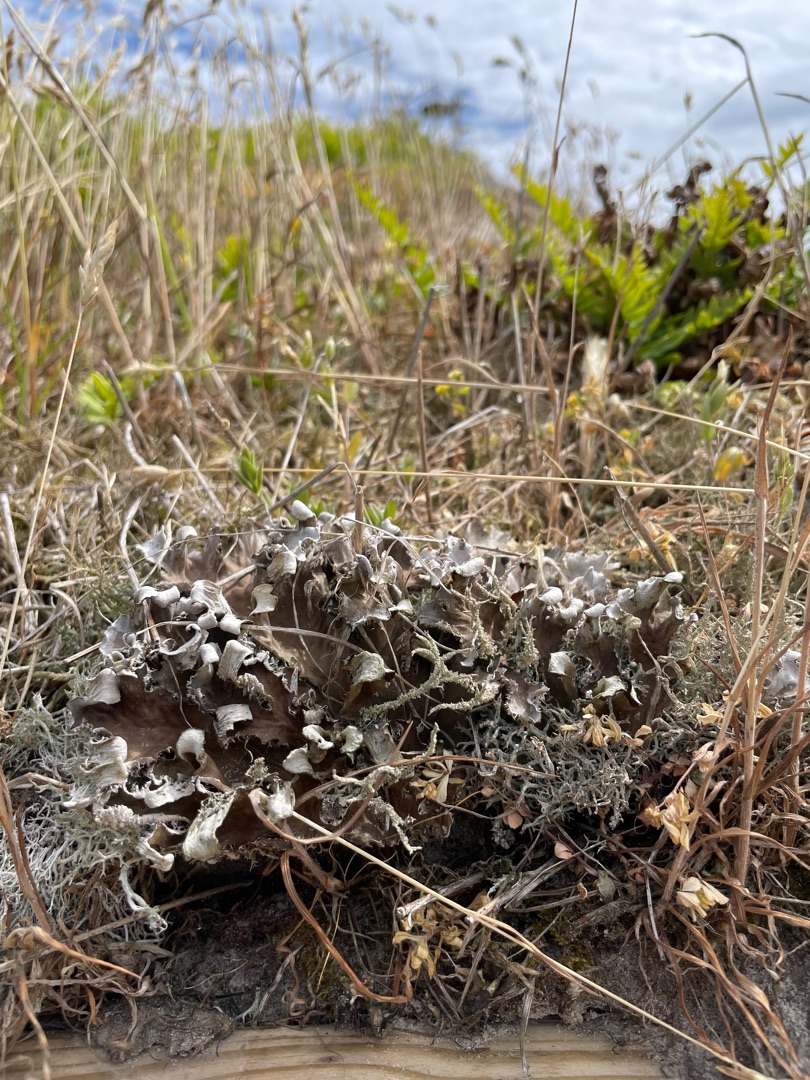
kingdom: Fungi
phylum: Ascomycota
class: Lecanoromycetes
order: Peltigerales
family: Peltigeraceae
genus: Peltigera
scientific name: Peltigera
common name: Skjoldlav
